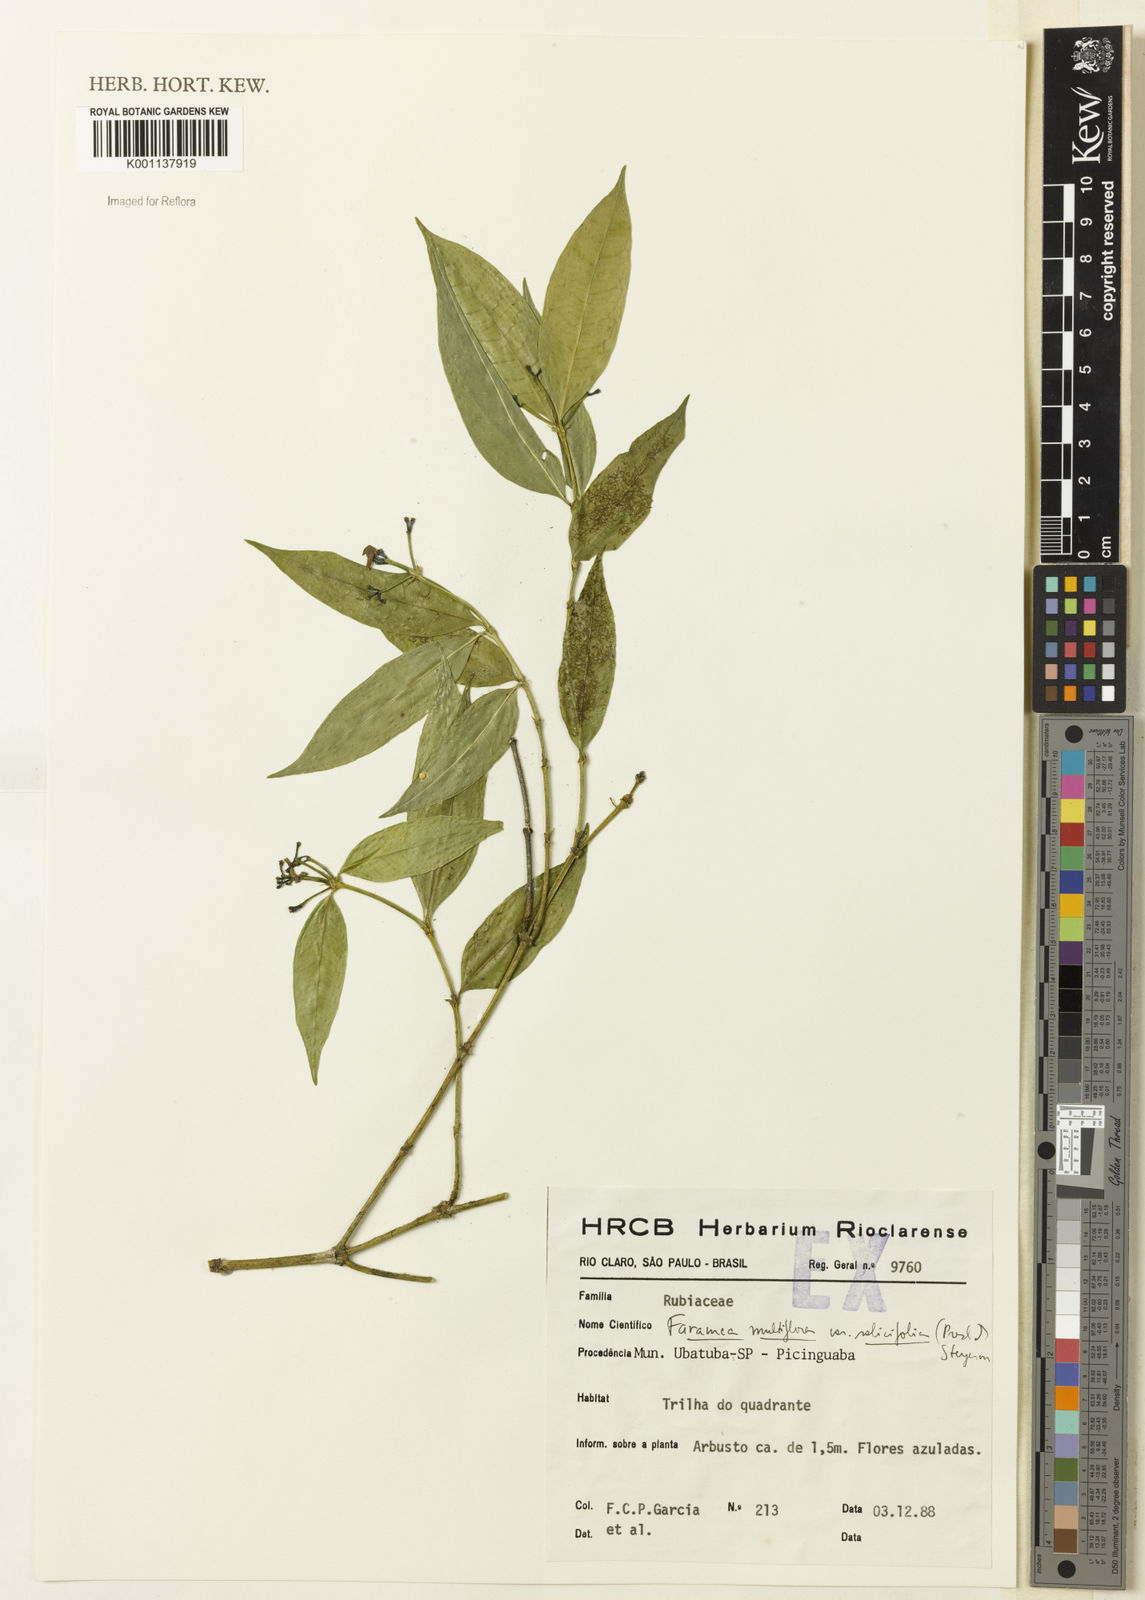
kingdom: Plantae
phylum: Tracheophyta
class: Magnoliopsida
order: Gentianales
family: Rubiaceae
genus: Faramea
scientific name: Faramea multiflora
